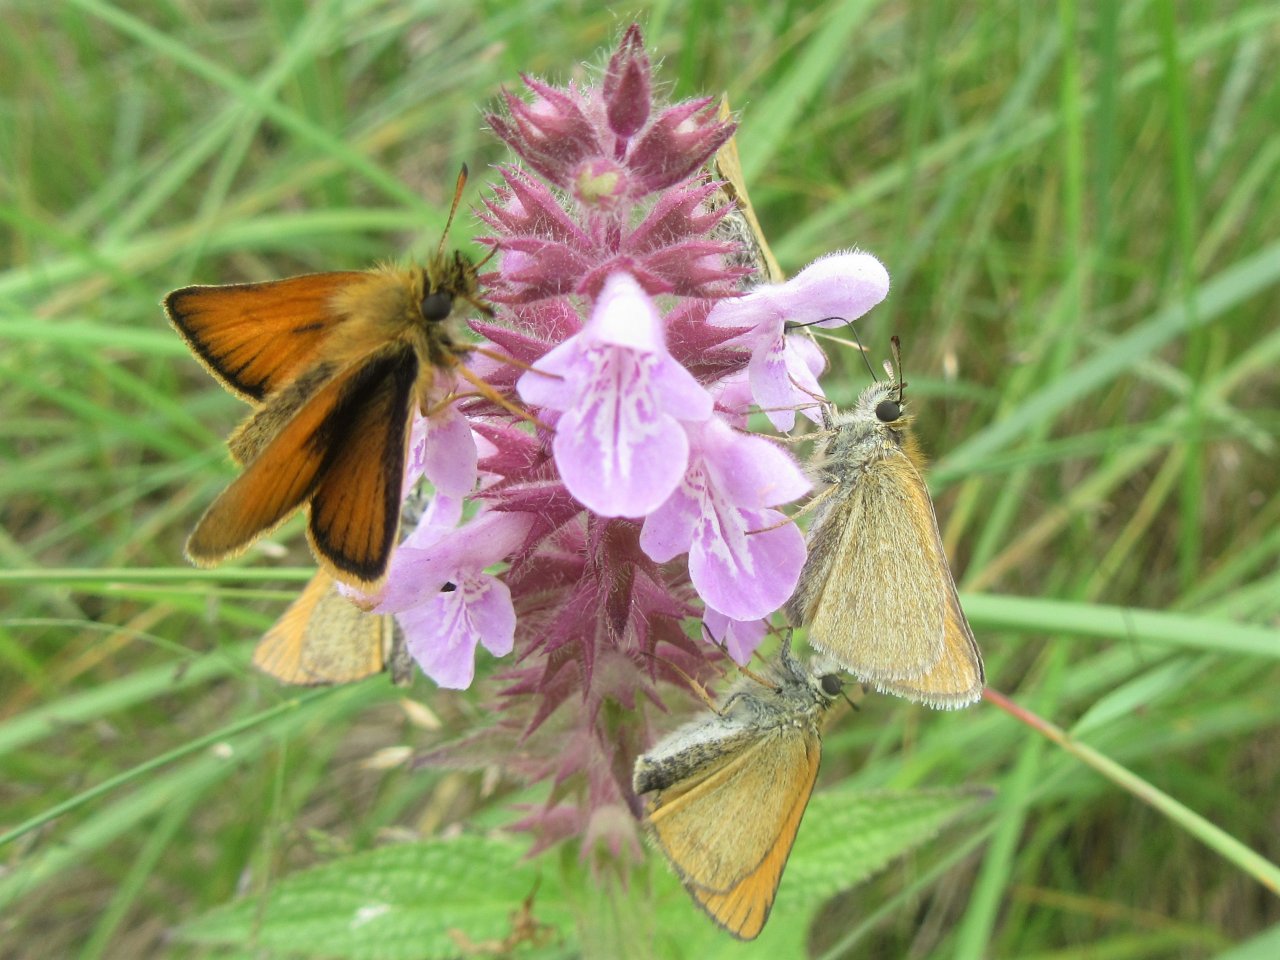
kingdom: Animalia
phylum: Arthropoda
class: Insecta
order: Lepidoptera
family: Hesperiidae
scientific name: Hesperiidae
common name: Skippers
